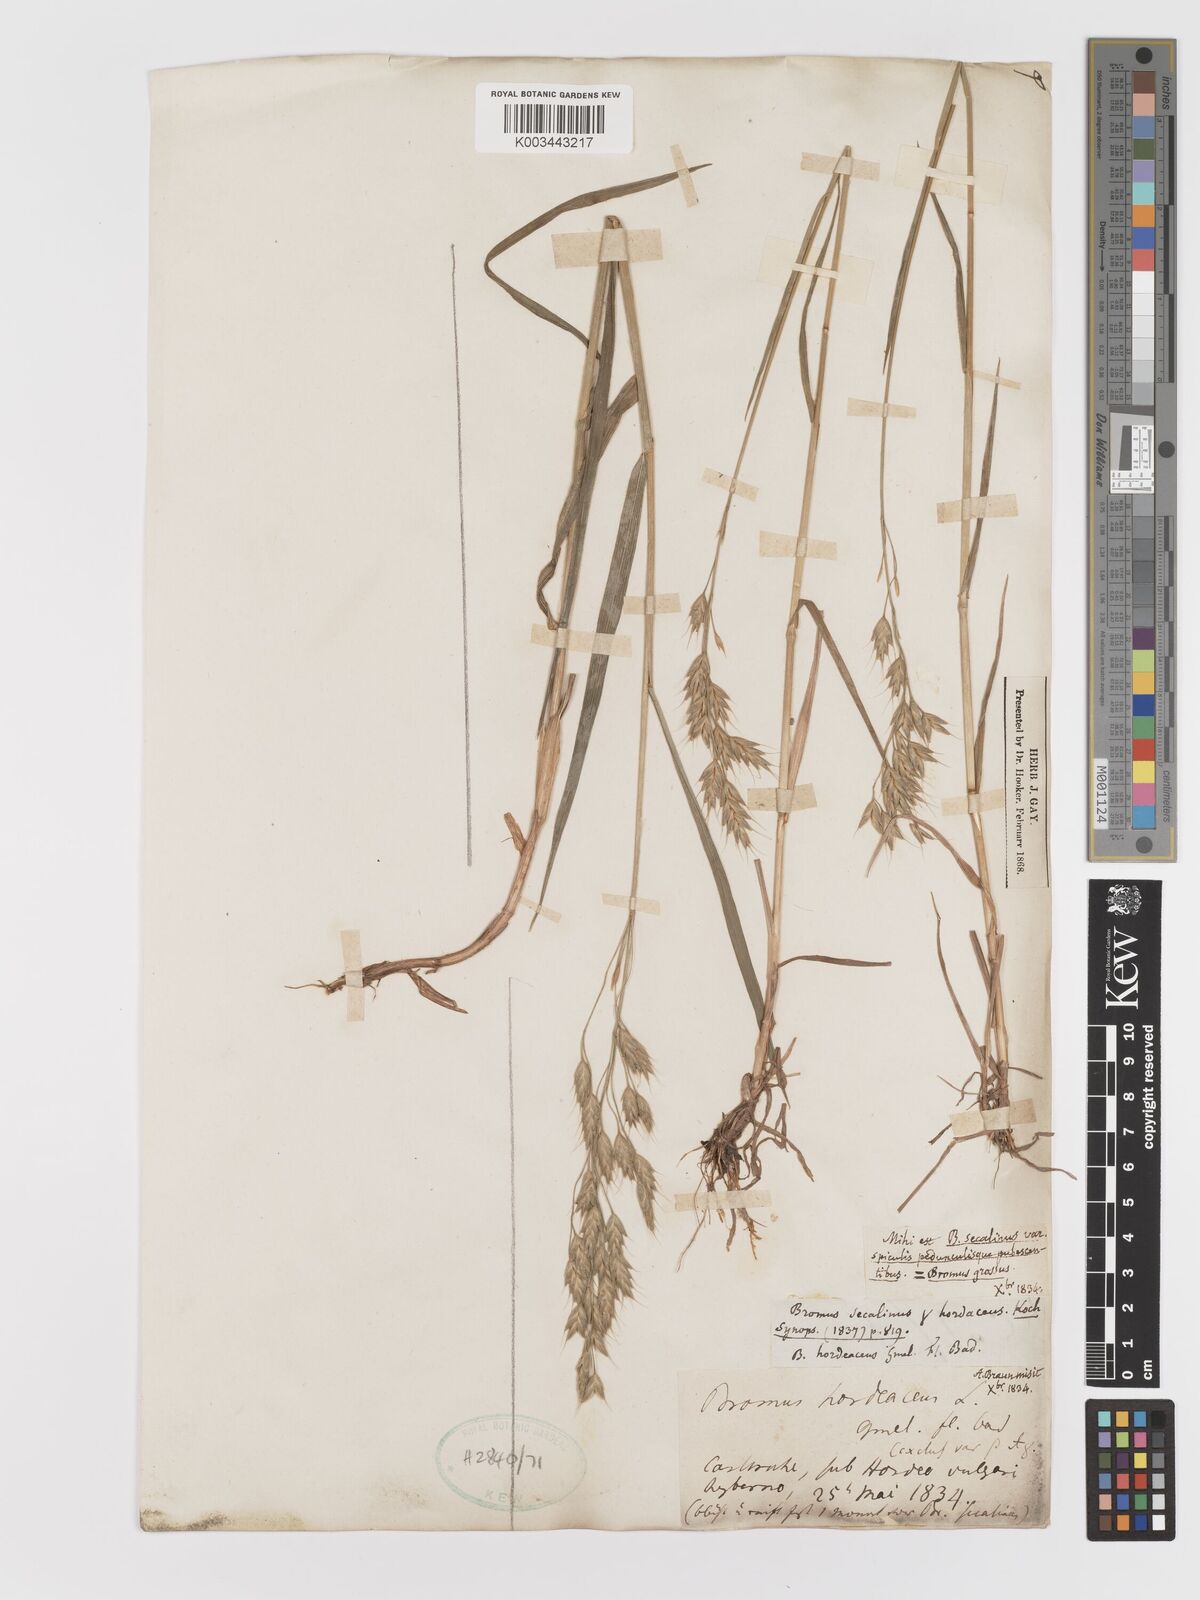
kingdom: Plantae
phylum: Tracheophyta
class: Liliopsida
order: Poales
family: Poaceae
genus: Bromus
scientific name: Bromus
